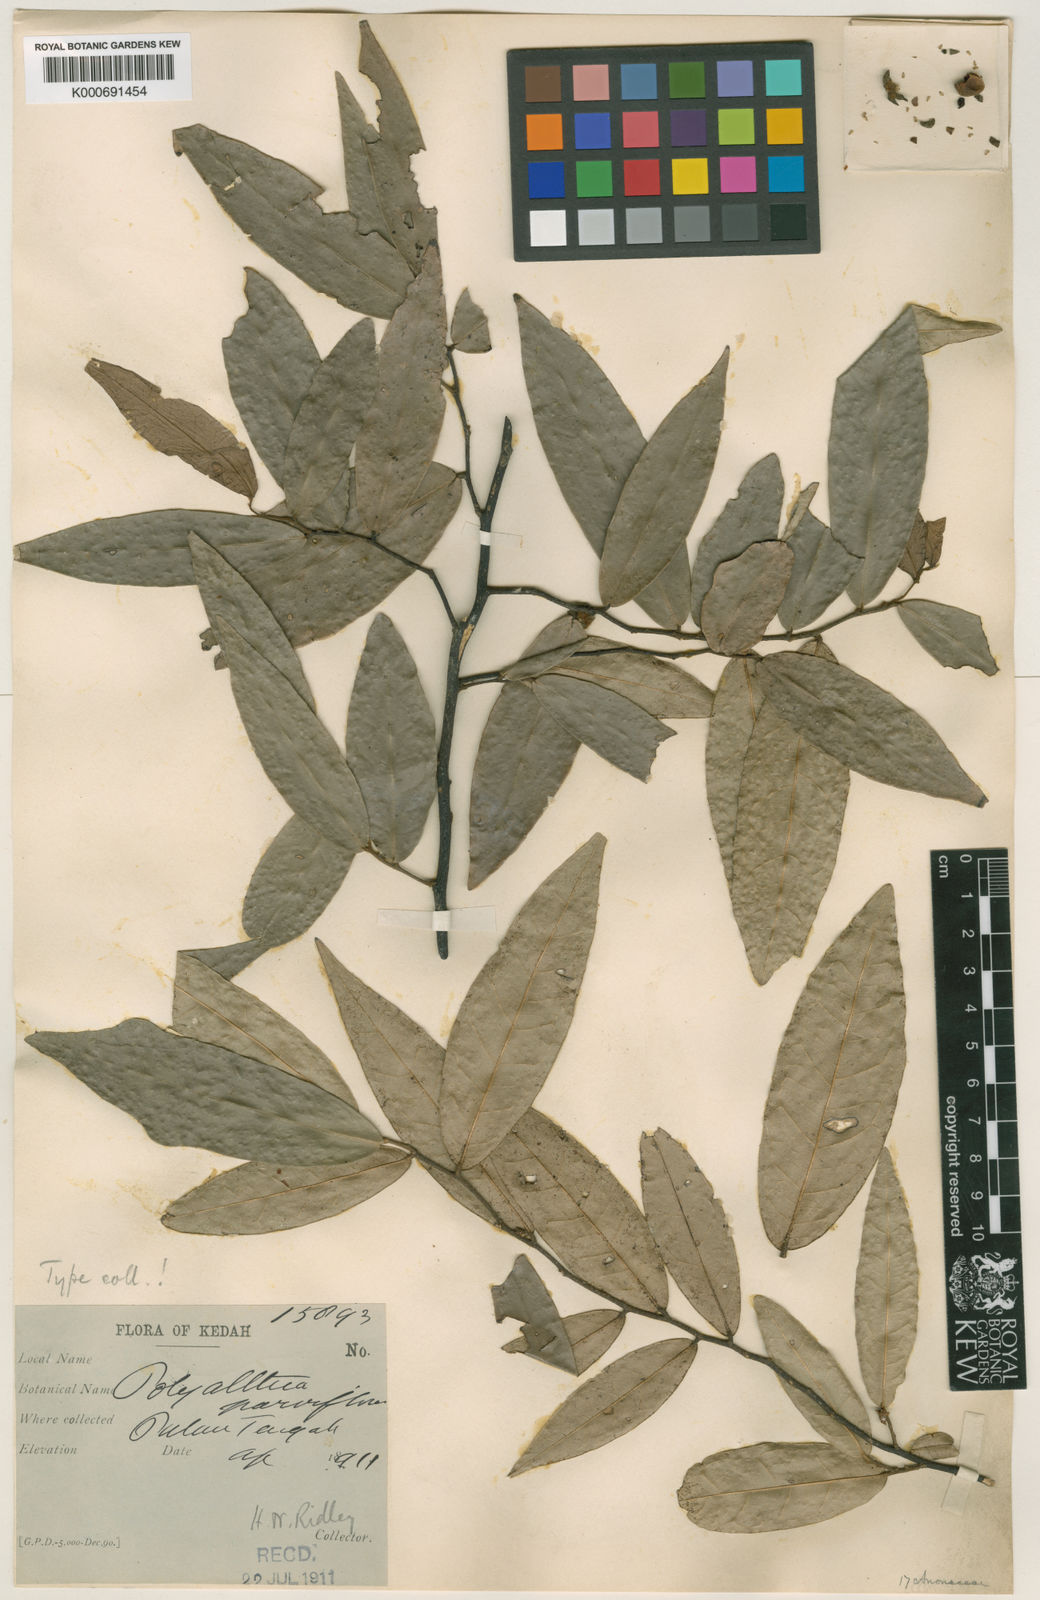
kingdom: Plantae
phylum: Tracheophyta
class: Magnoliopsida
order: Magnoliales
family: Annonaceae
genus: Polyalthia
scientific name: Polyalthia parviflora
